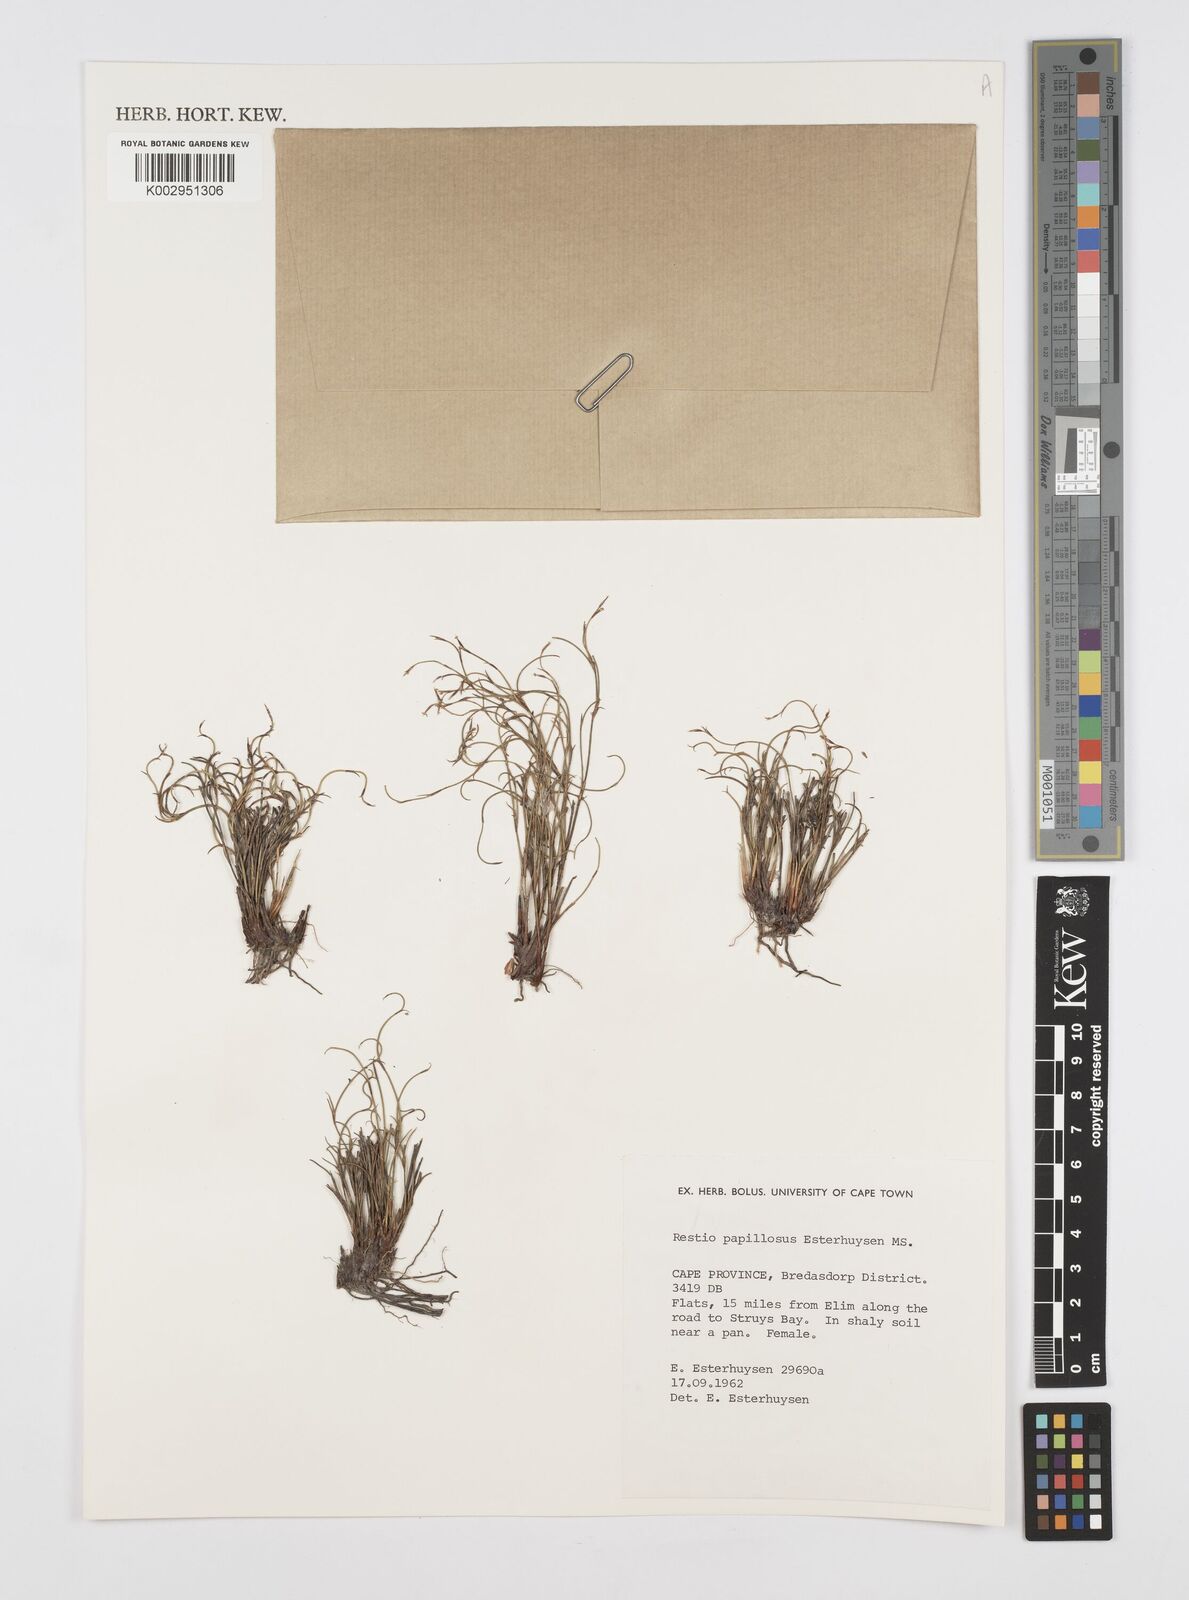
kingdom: Plantae
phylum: Tracheophyta
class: Liliopsida
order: Poales
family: Restionaceae
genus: Restio
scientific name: Restio papillosus
